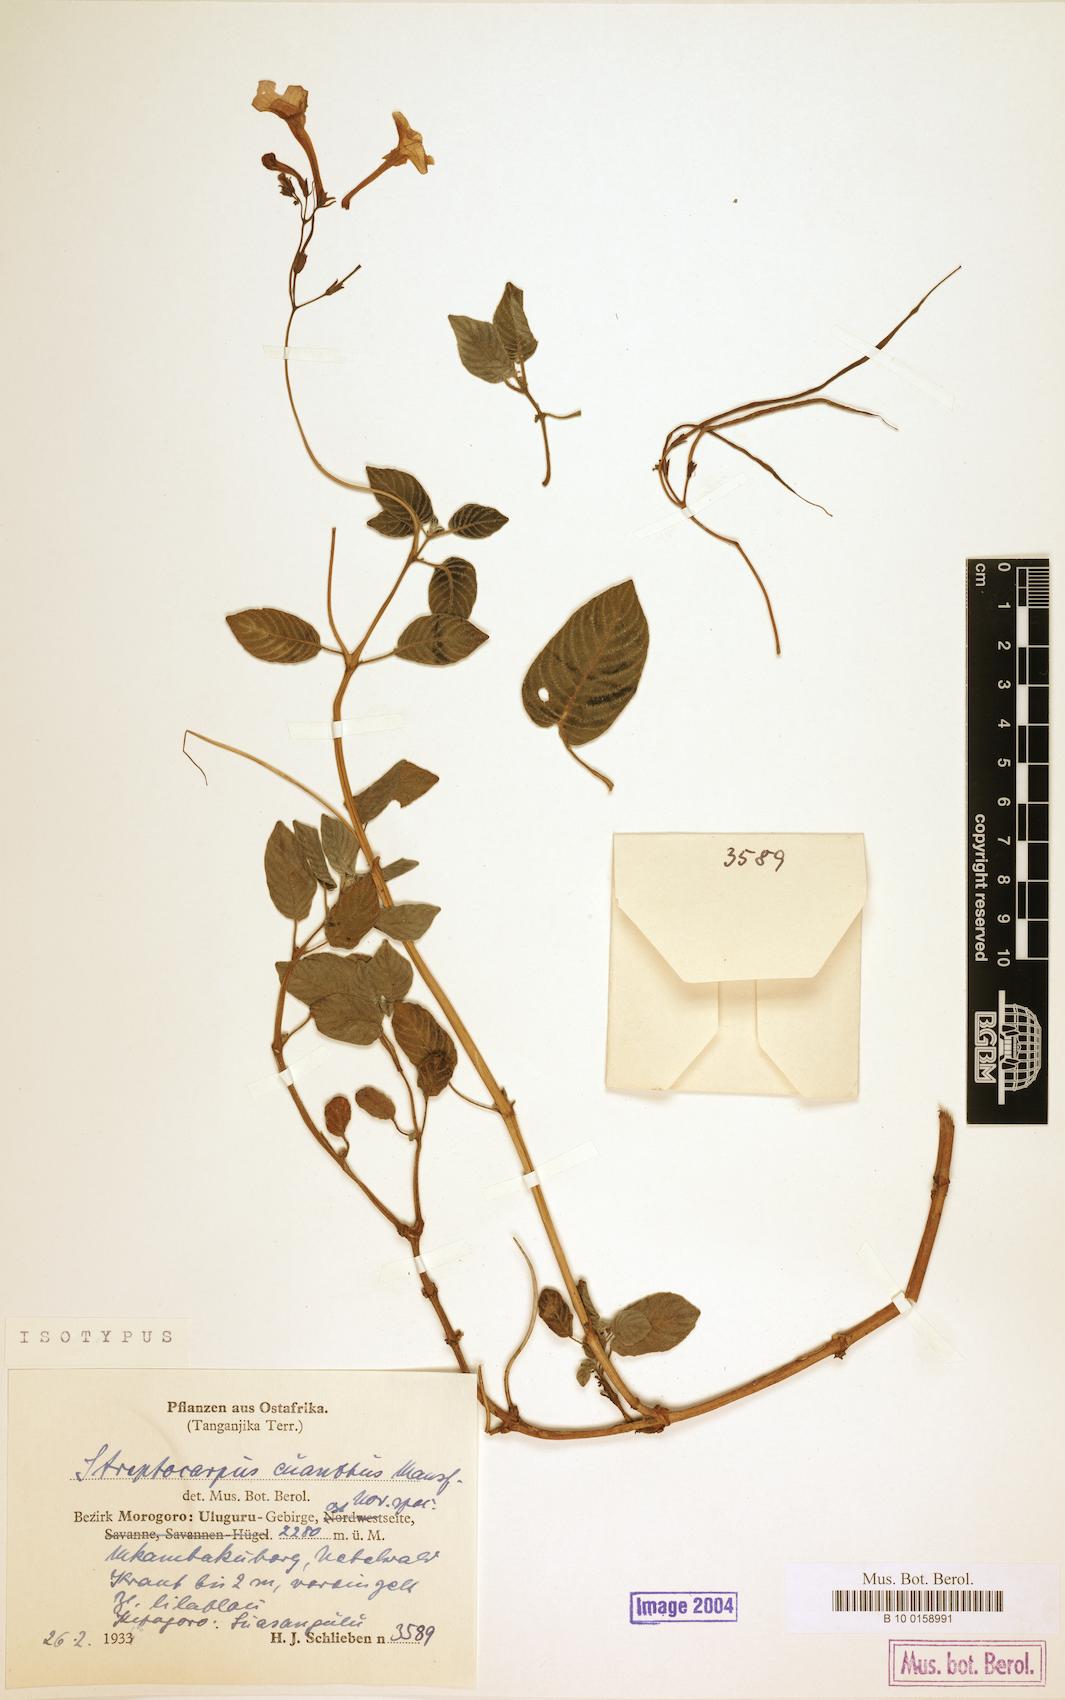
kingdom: Plantae
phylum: Tracheophyta
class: Magnoliopsida
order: Lamiales
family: Gesneriaceae
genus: Streptocarpus
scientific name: Streptocarpus cyaneus
